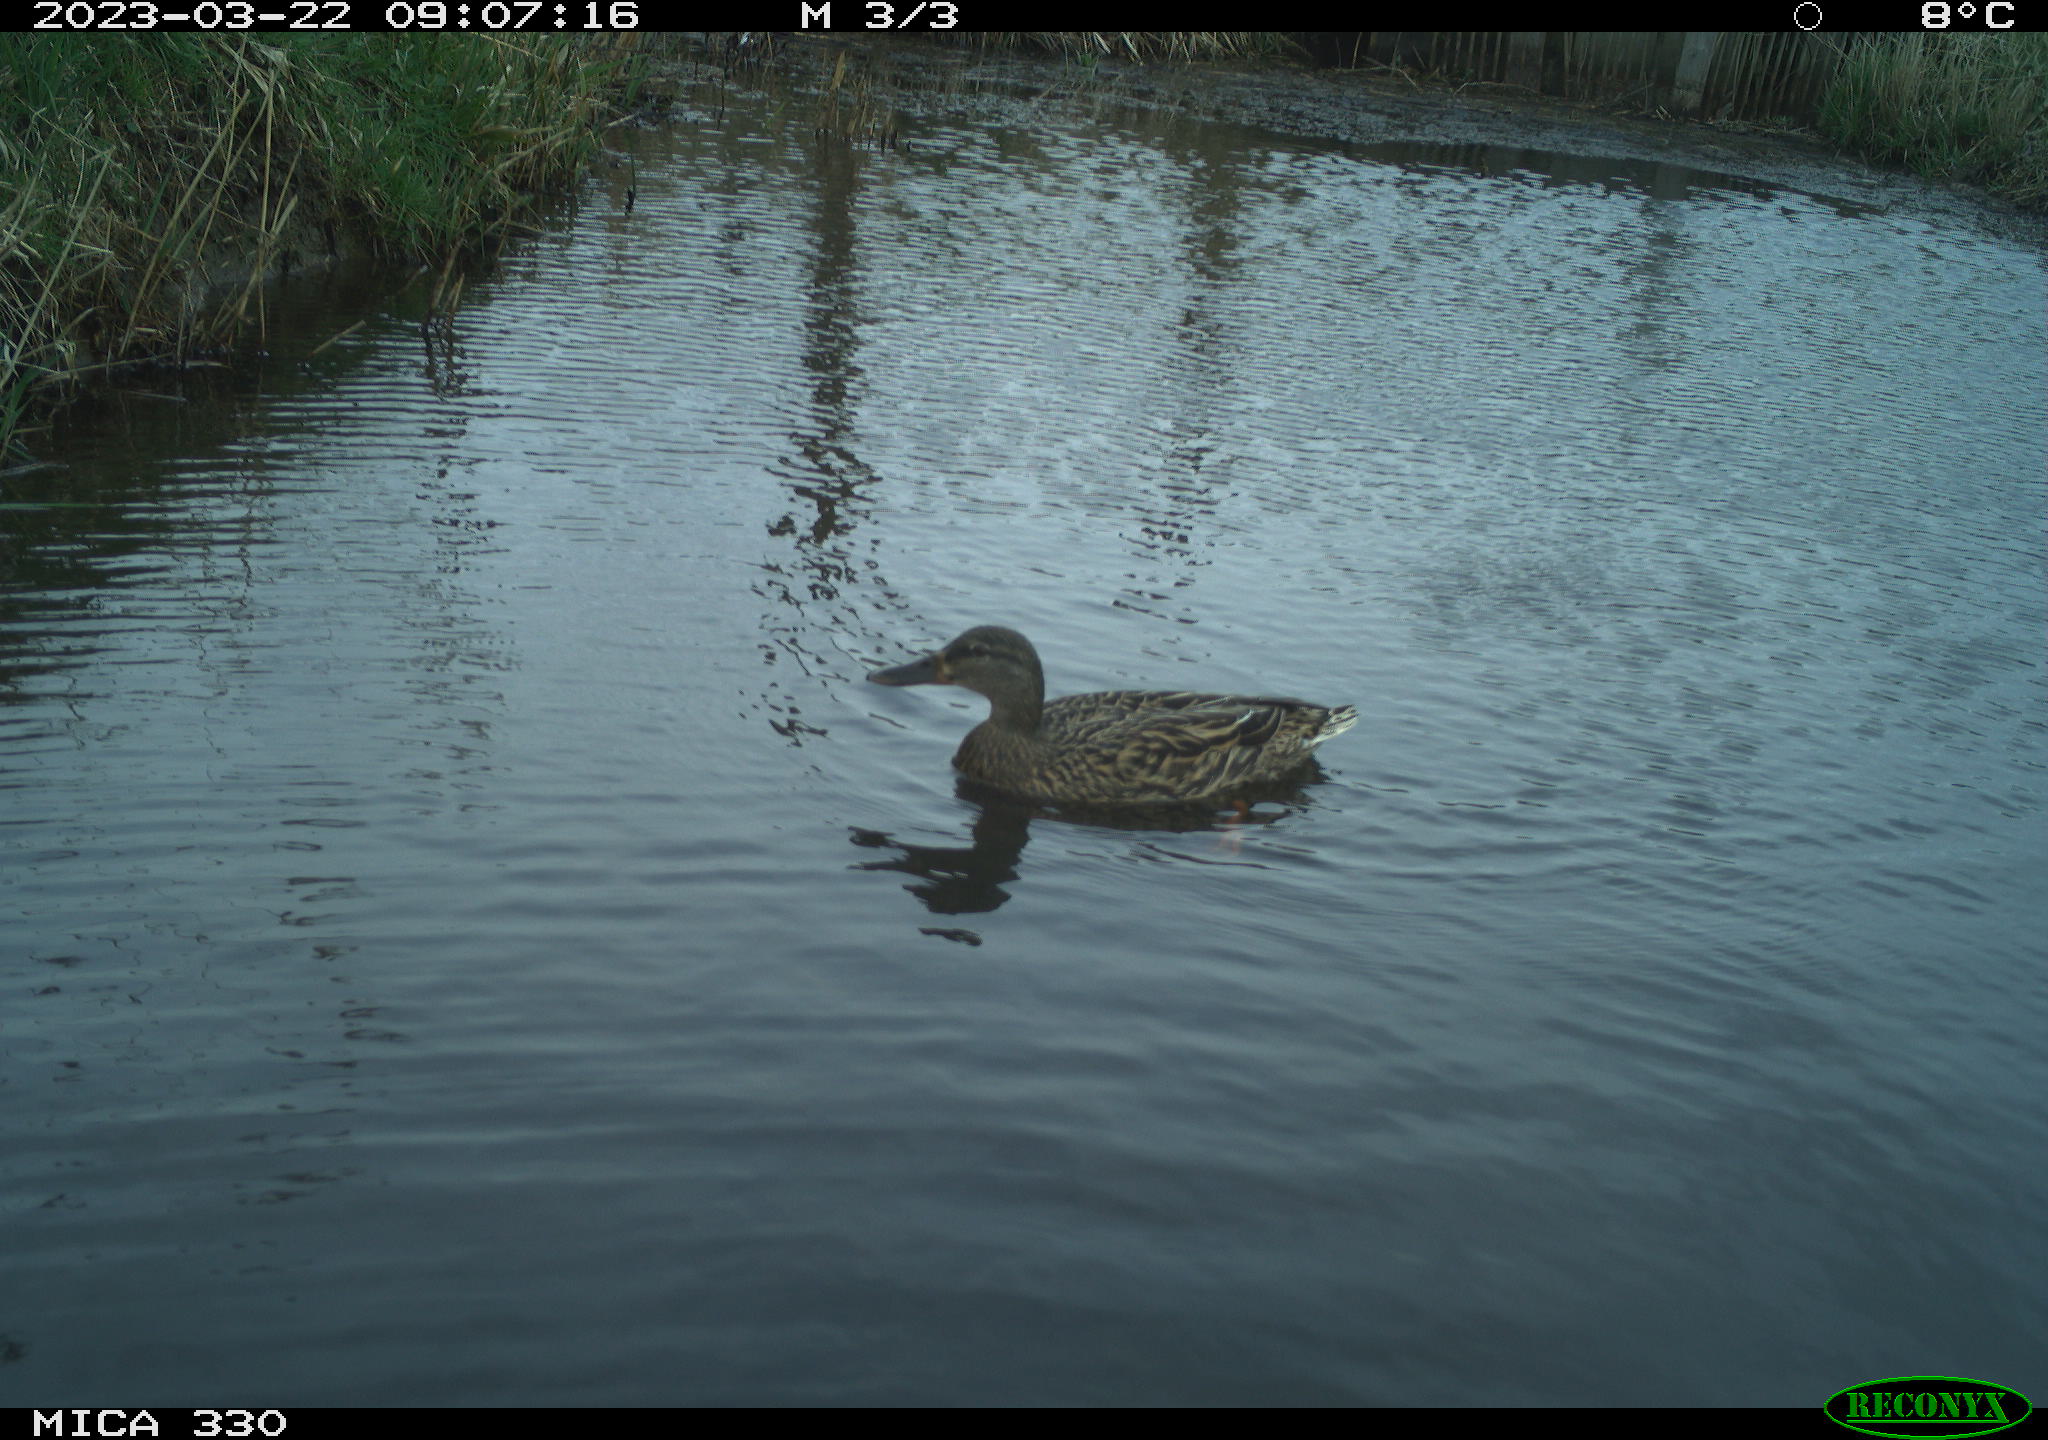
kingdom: Animalia
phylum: Chordata
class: Aves
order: Anseriformes
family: Anatidae
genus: Anas
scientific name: Anas
